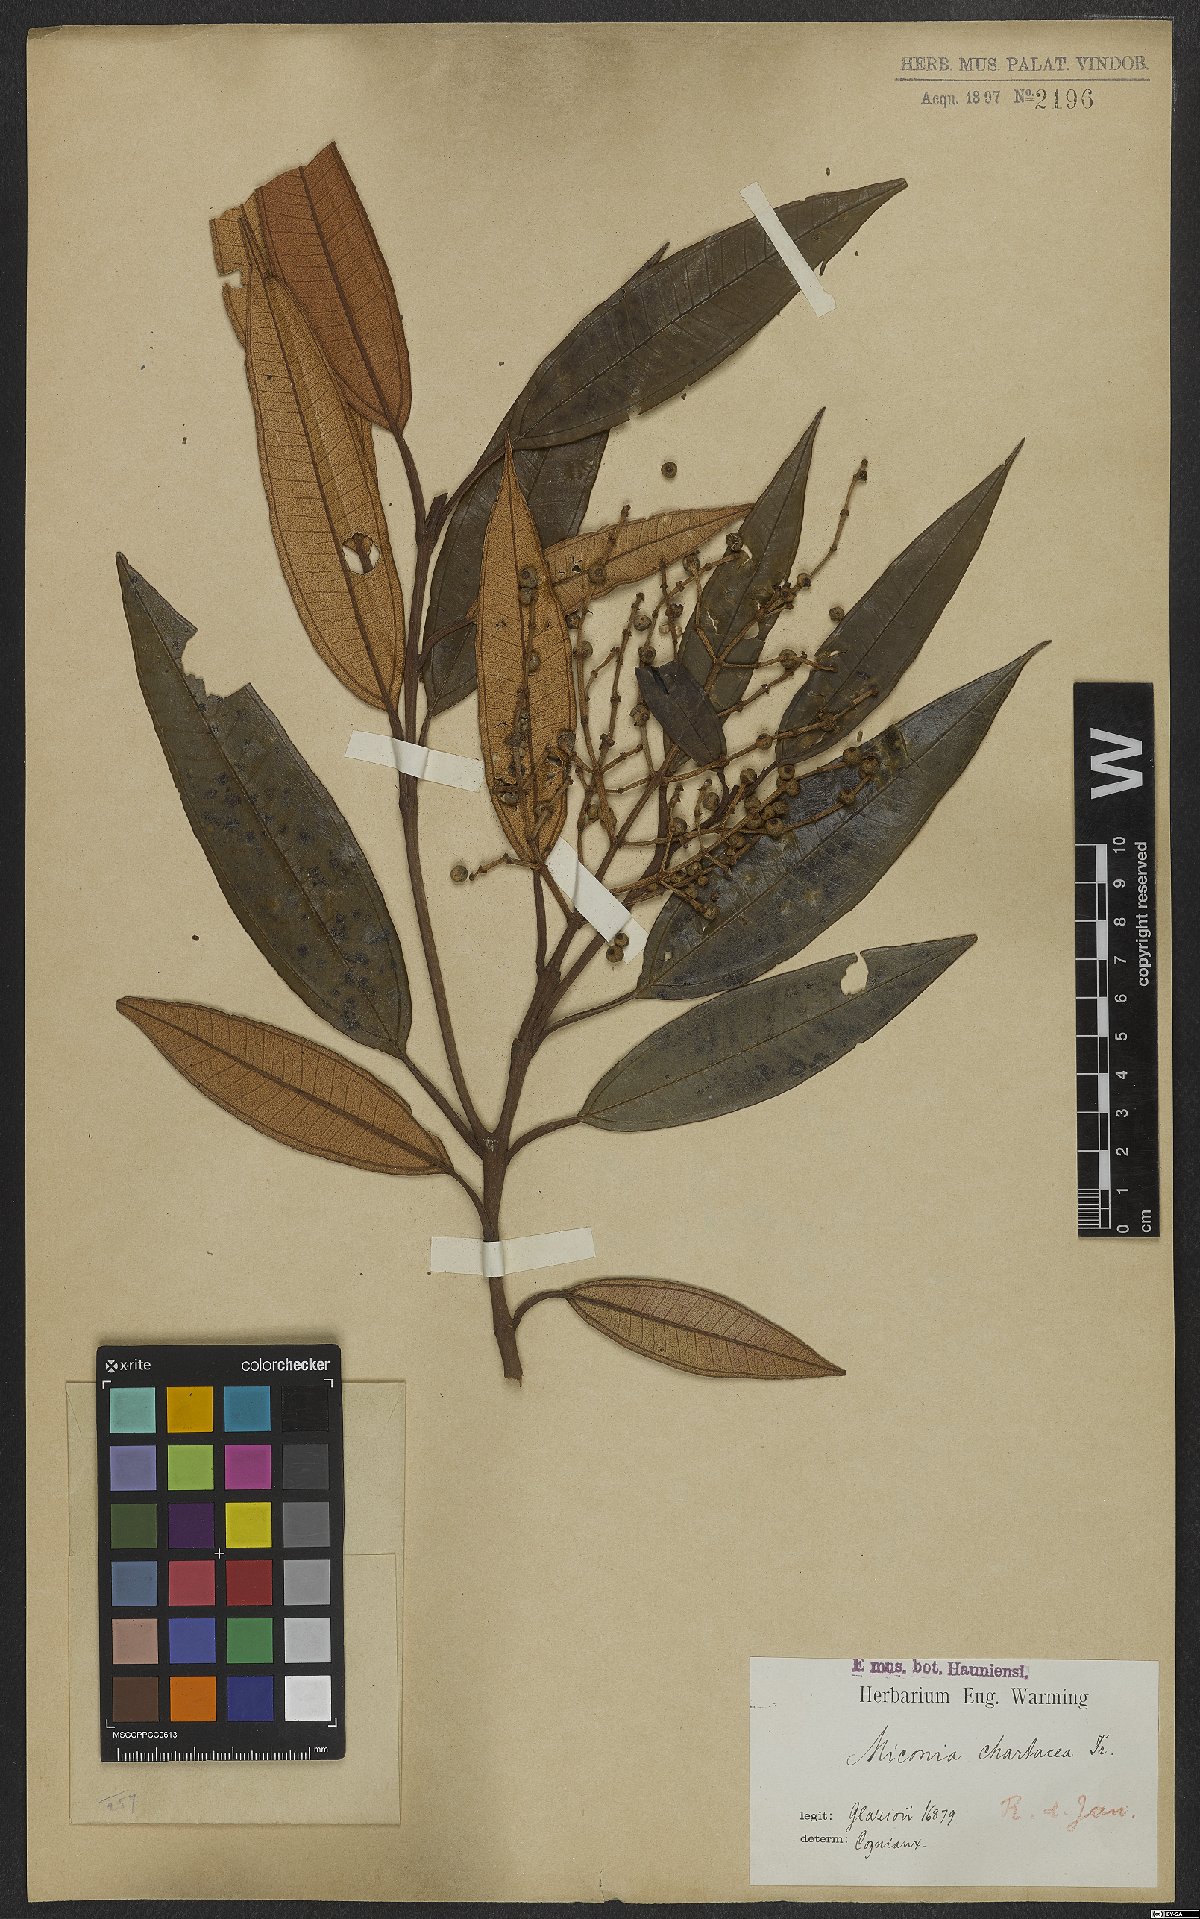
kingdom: Plantae
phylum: Tracheophyta
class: Magnoliopsida
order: Myrtales
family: Melastomataceae
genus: Miconia
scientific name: Miconia chartacea
